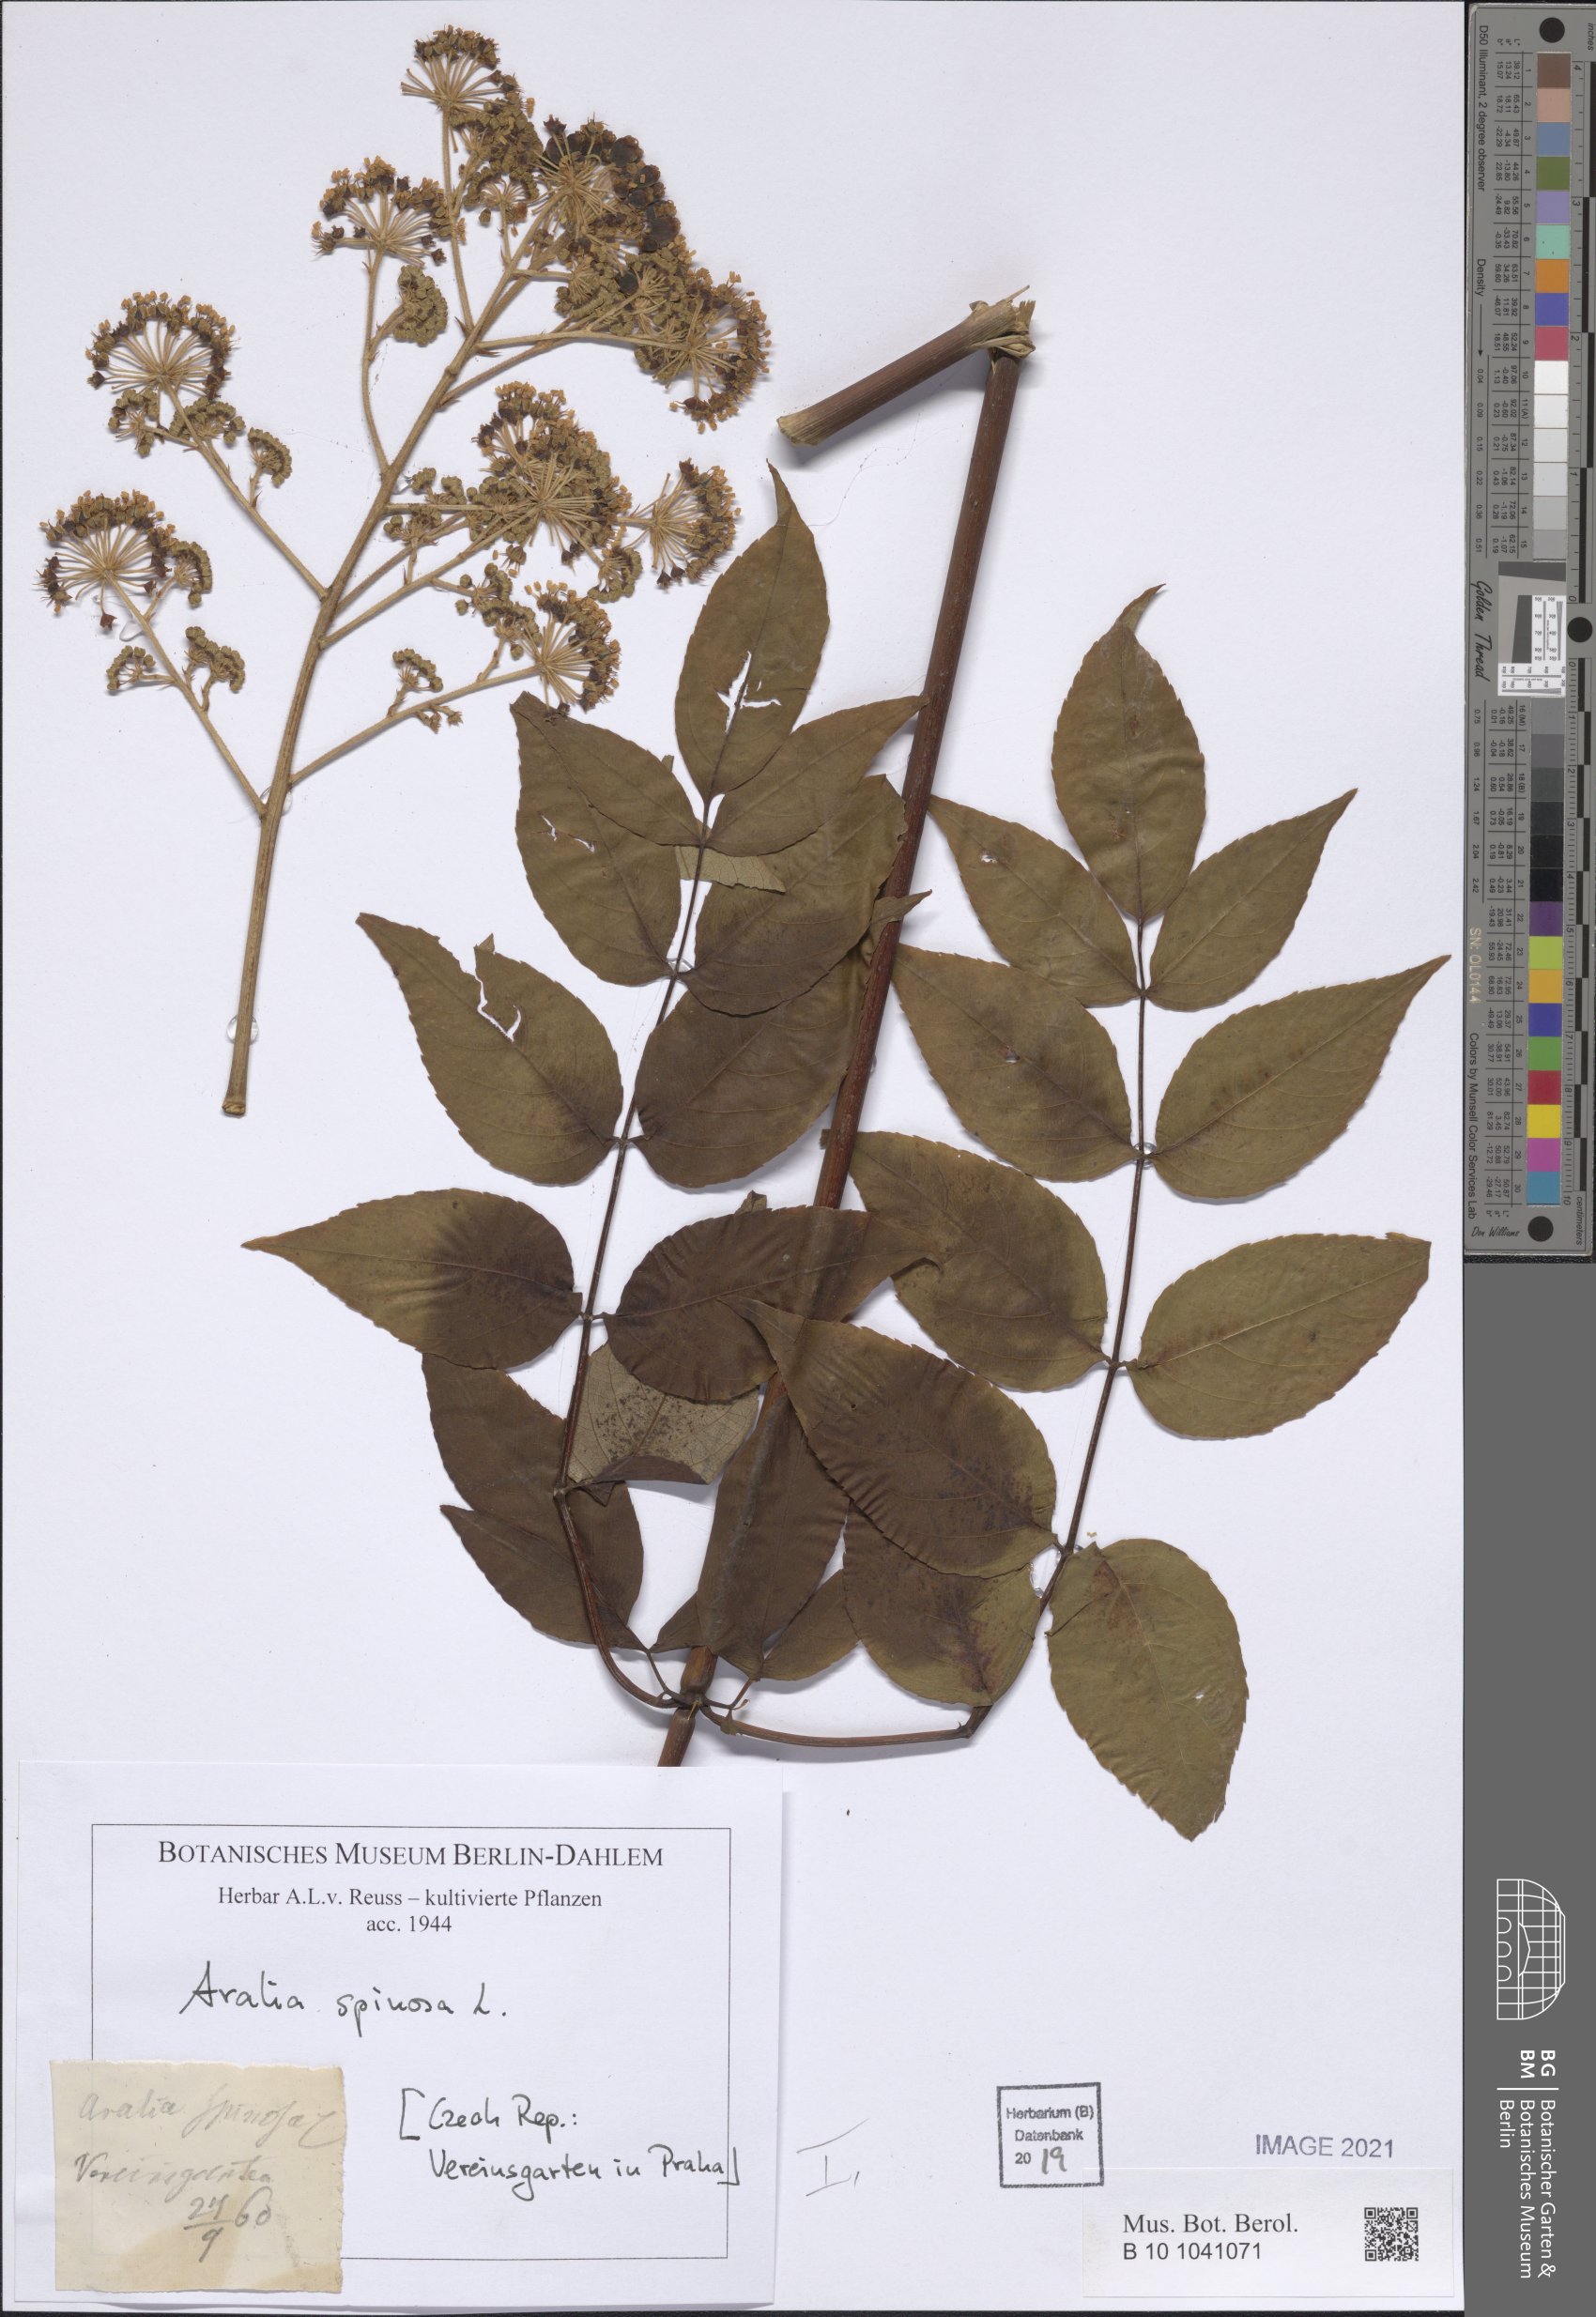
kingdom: Plantae
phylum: Tracheophyta
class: Magnoliopsida
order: Apiales
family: Araliaceae
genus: Aralia
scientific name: Aralia spinosa
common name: Hercules'-club
